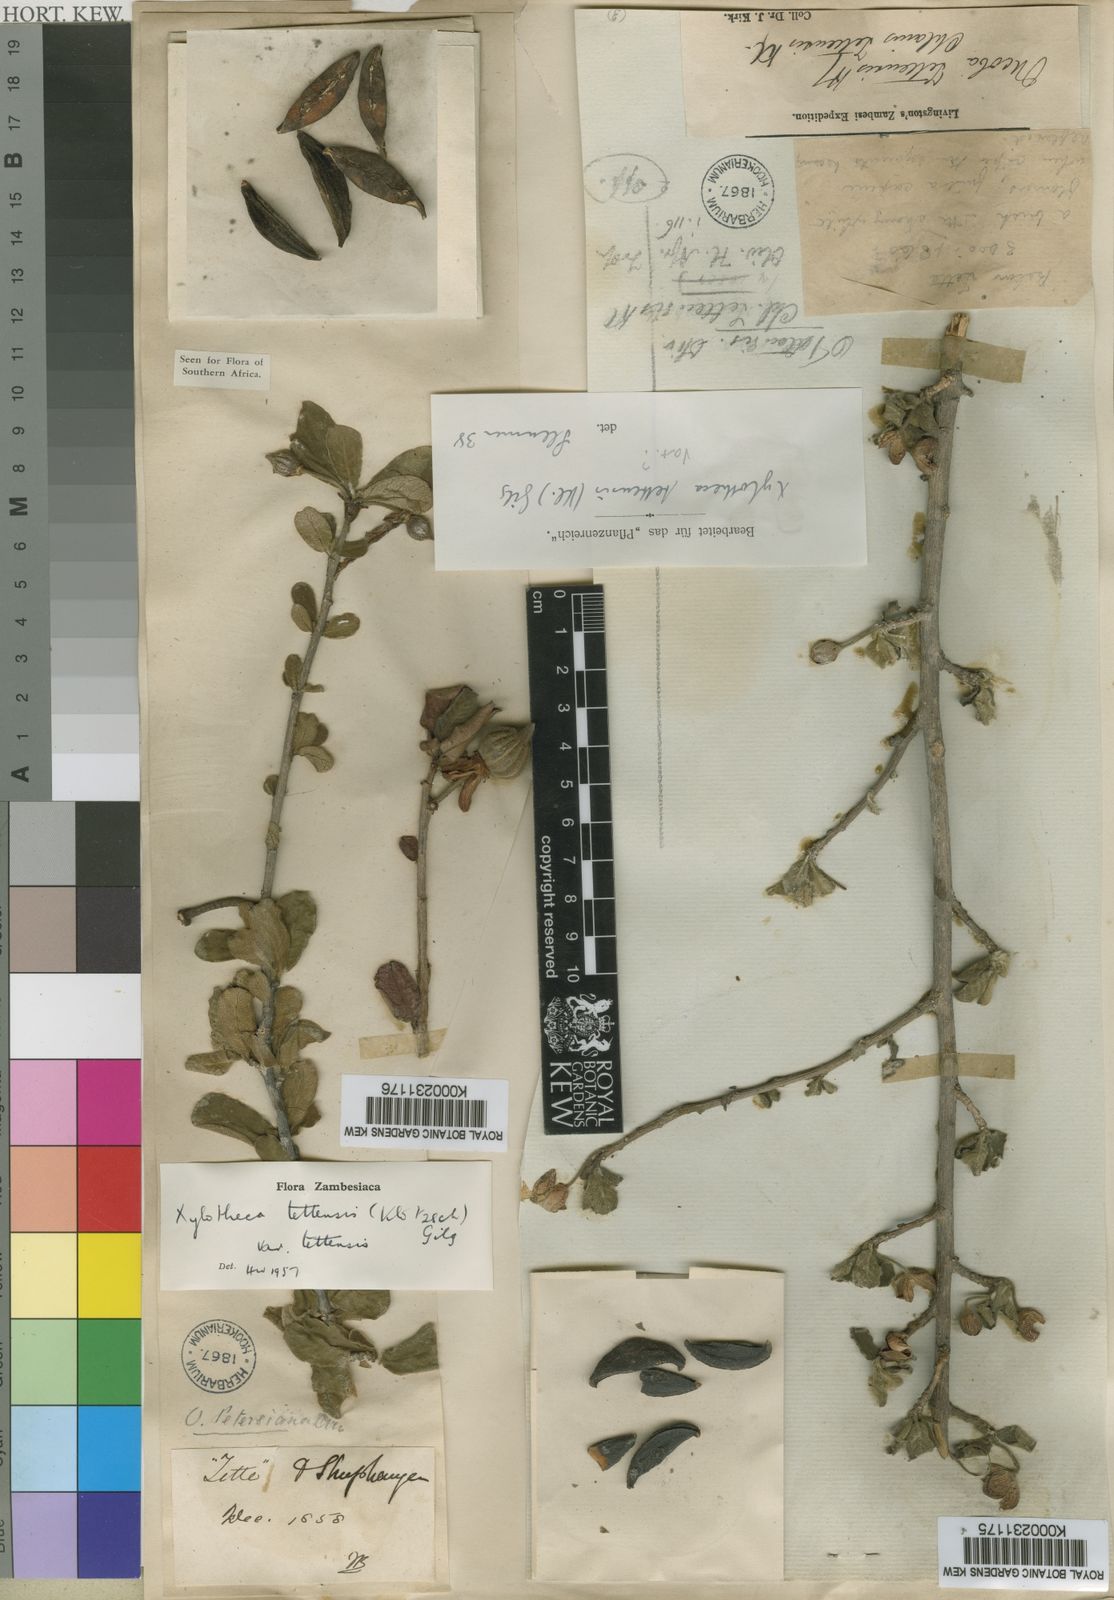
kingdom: Plantae
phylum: Tracheophyta
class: Magnoliopsida
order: Malpighiales
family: Achariaceae
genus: Xylotheca
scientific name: Xylotheca tettensis
